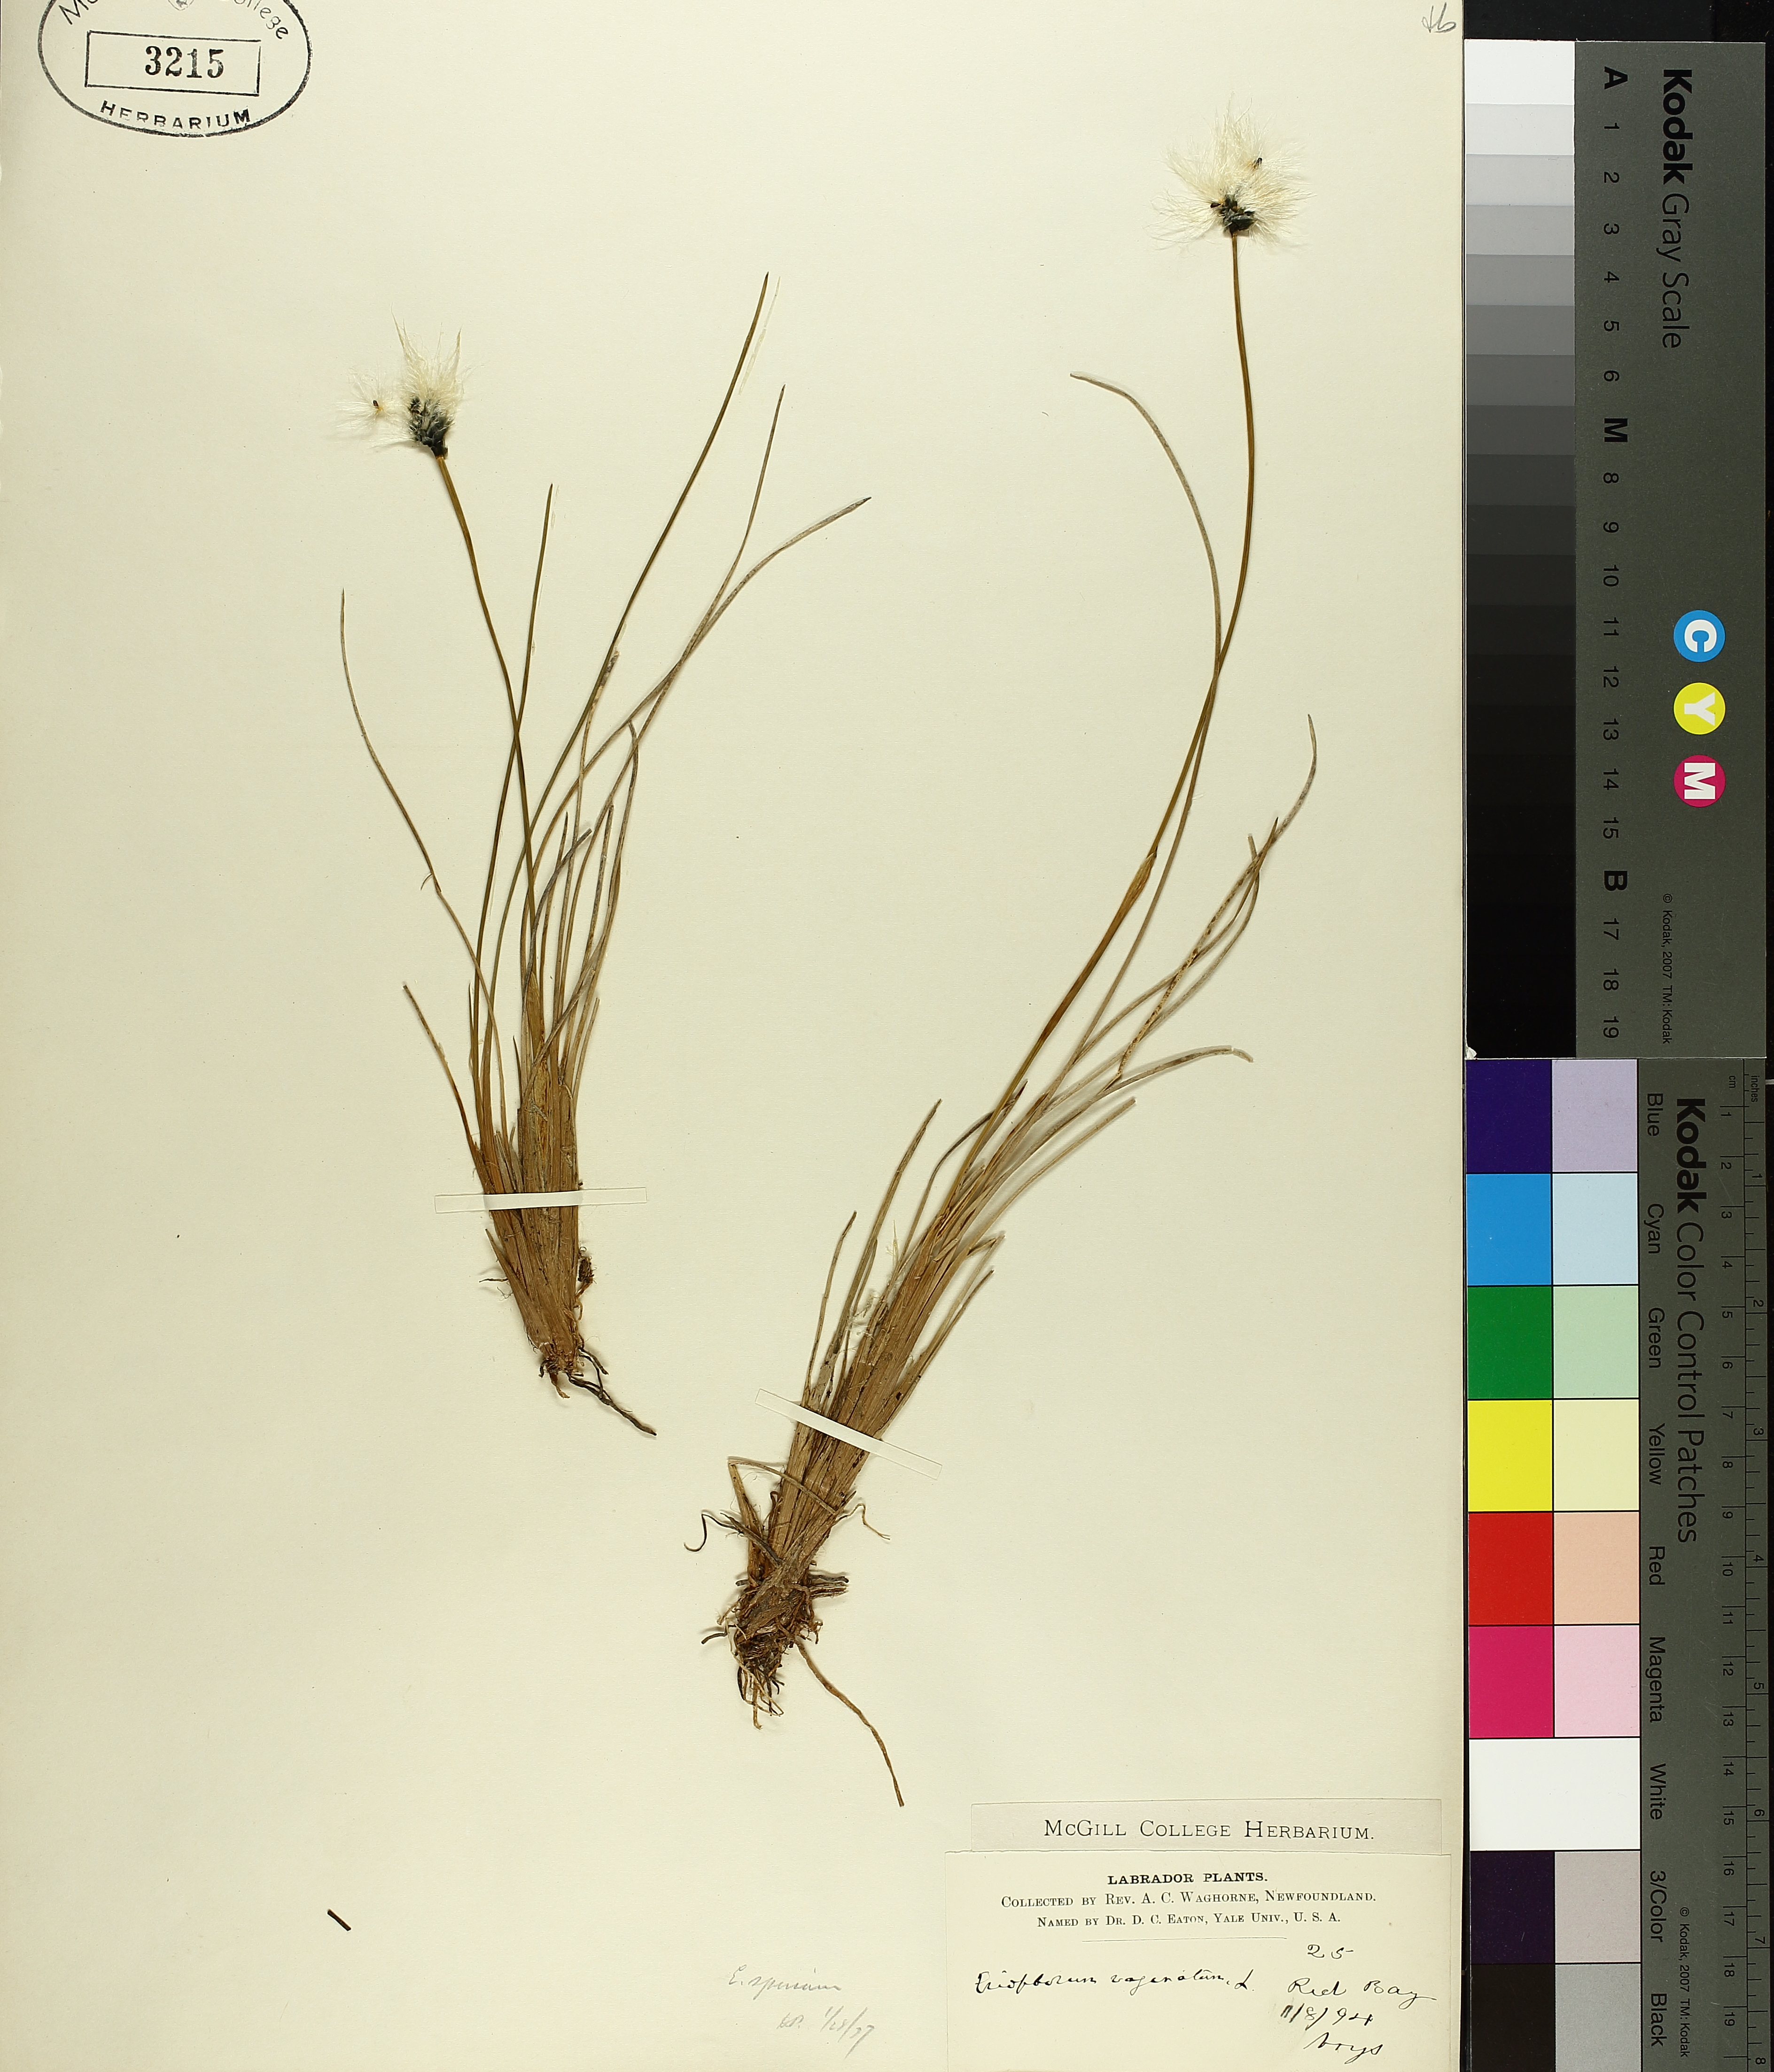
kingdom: Plantae
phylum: Tracheophyta
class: Liliopsida
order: Poales
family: Cyperaceae
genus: Eriophorum
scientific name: Eriophorum vaginatum
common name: Hare's-tail cottongrass
